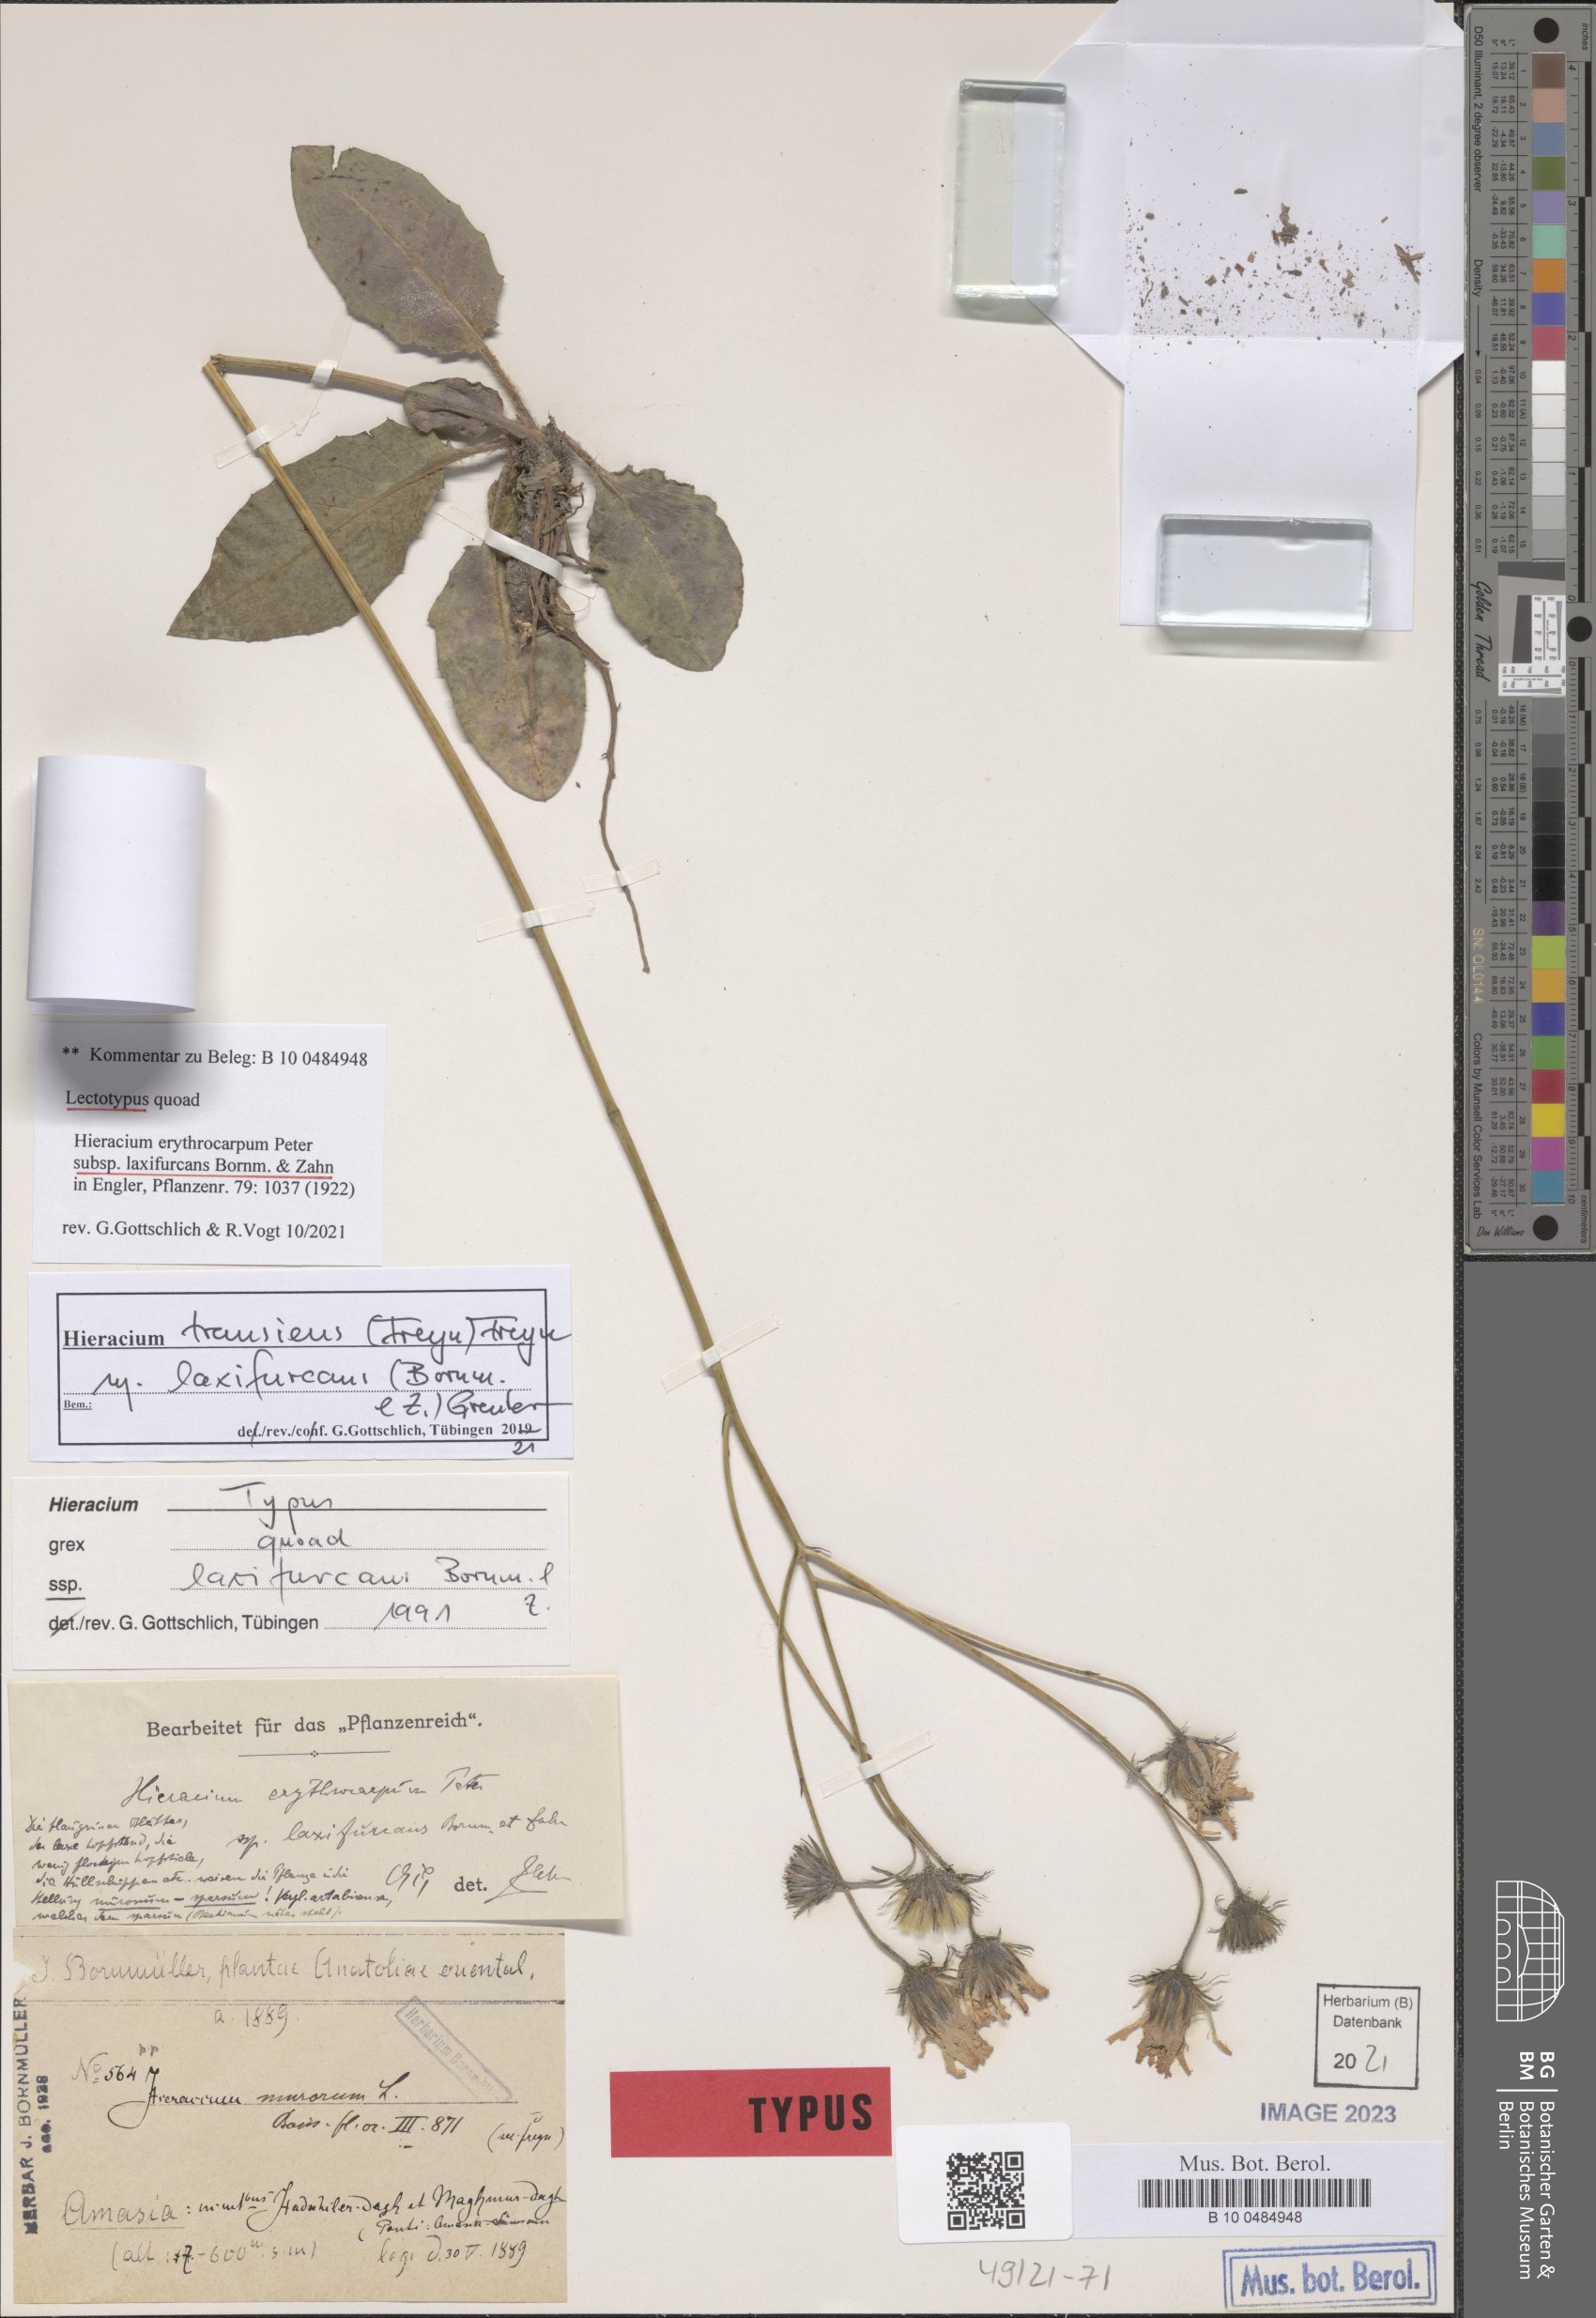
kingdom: Plantae
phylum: Tracheophyta
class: Magnoliopsida
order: Asterales
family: Asteraceae
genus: Hieracium
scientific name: Hieracium transiens
